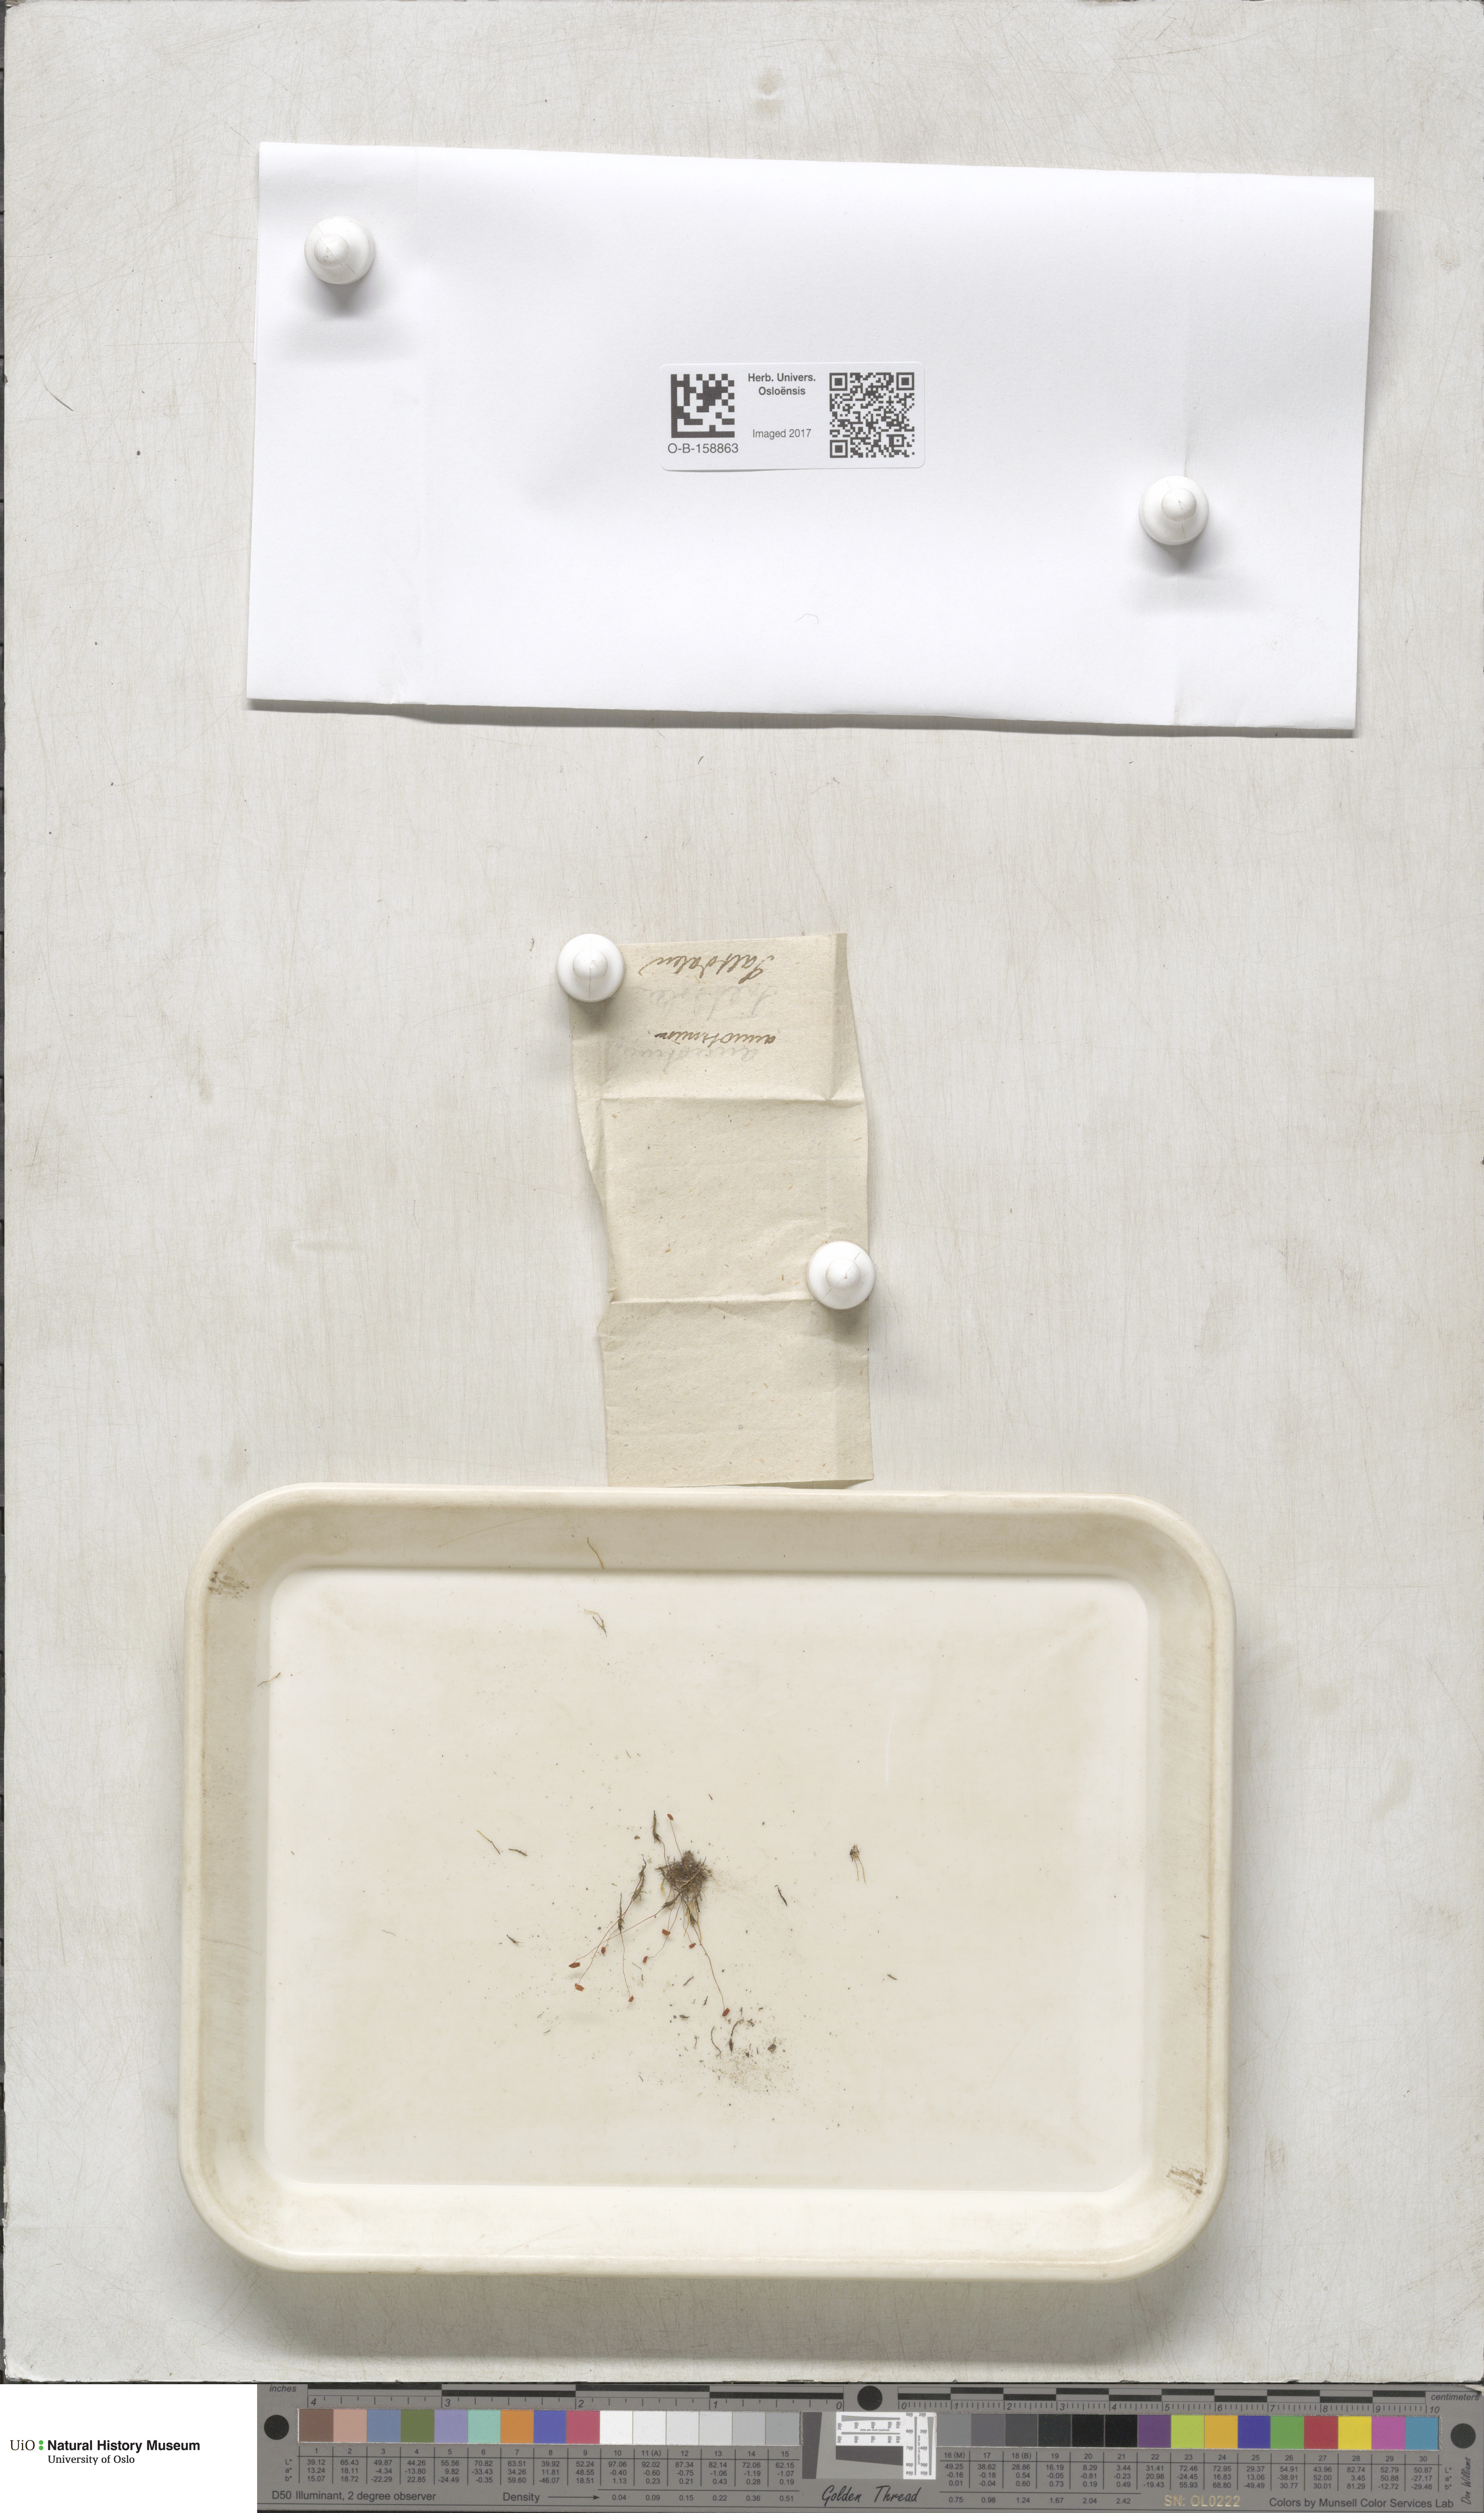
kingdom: Plantae
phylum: Bryophyta
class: Bryopsida
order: Bryales
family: Mniaceae
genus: Pohlia
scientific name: Pohlia annotina
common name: Pale-fruited nodding moss
